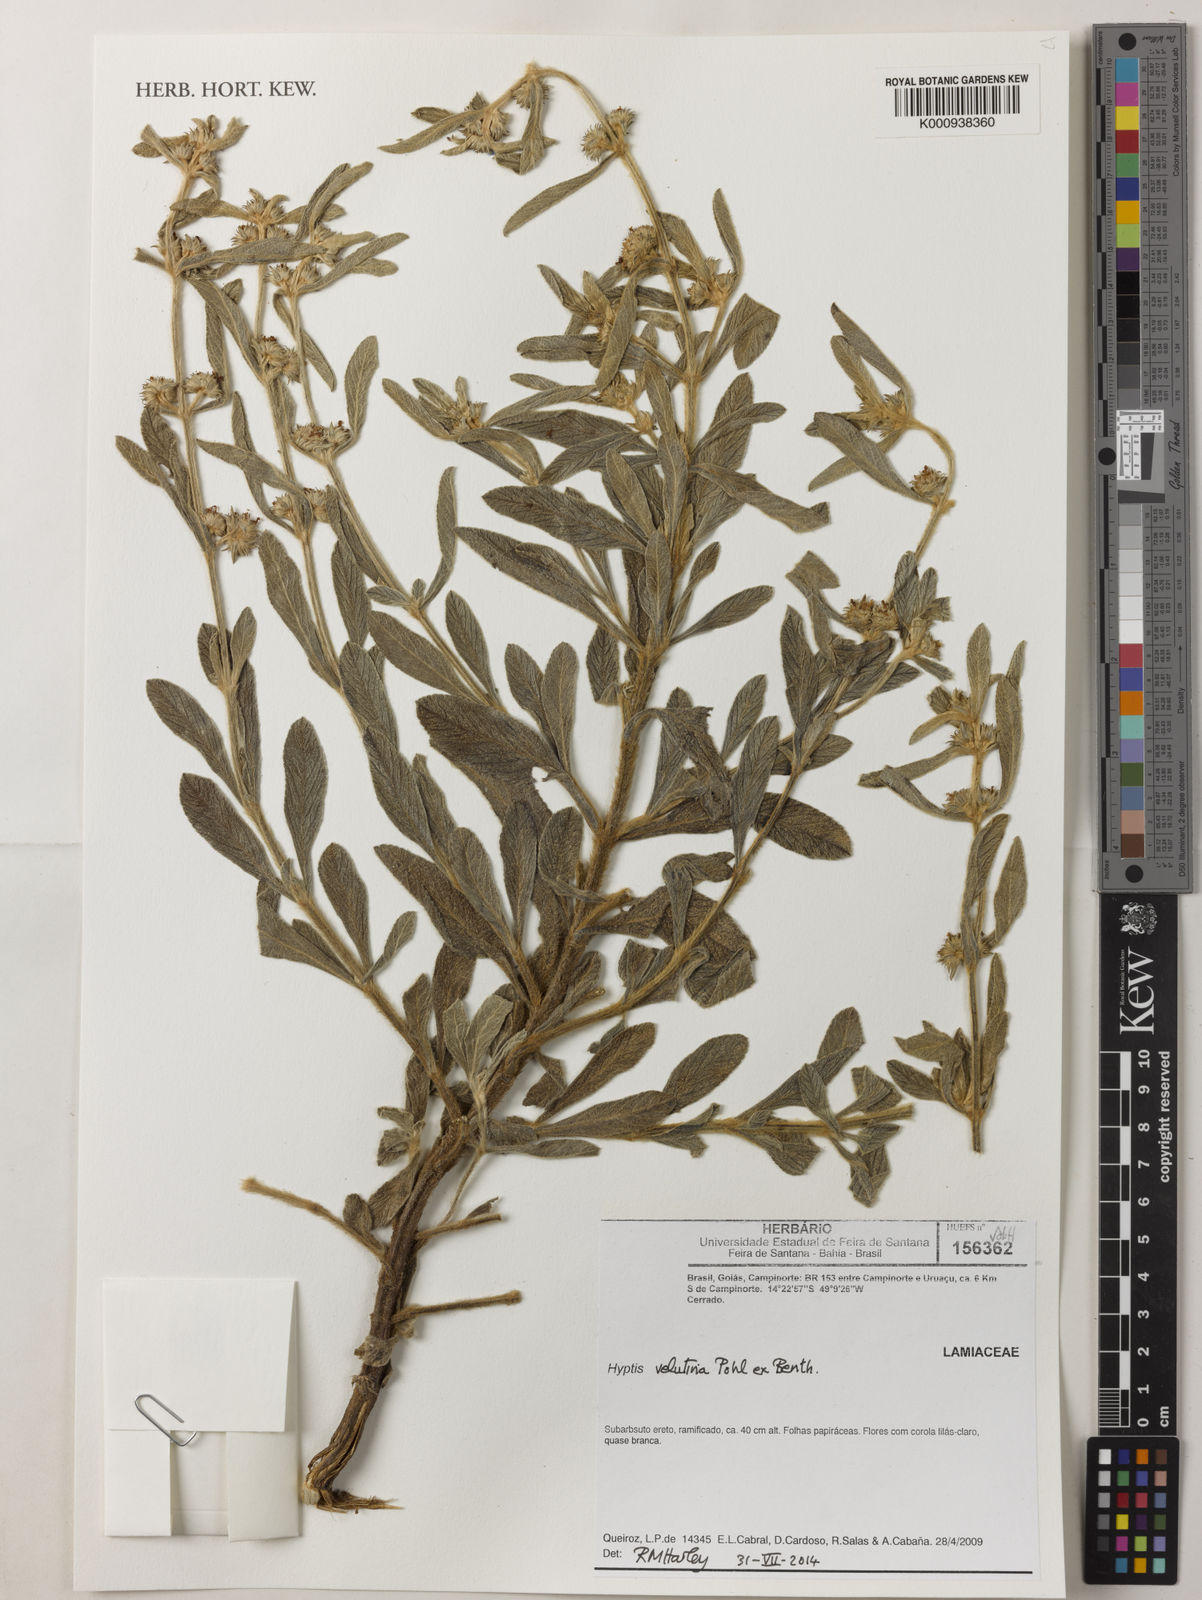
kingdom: Plantae
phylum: Tracheophyta
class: Magnoliopsida
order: Lamiales
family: Lamiaceae
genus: Hyptis
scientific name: Hyptis velutina
